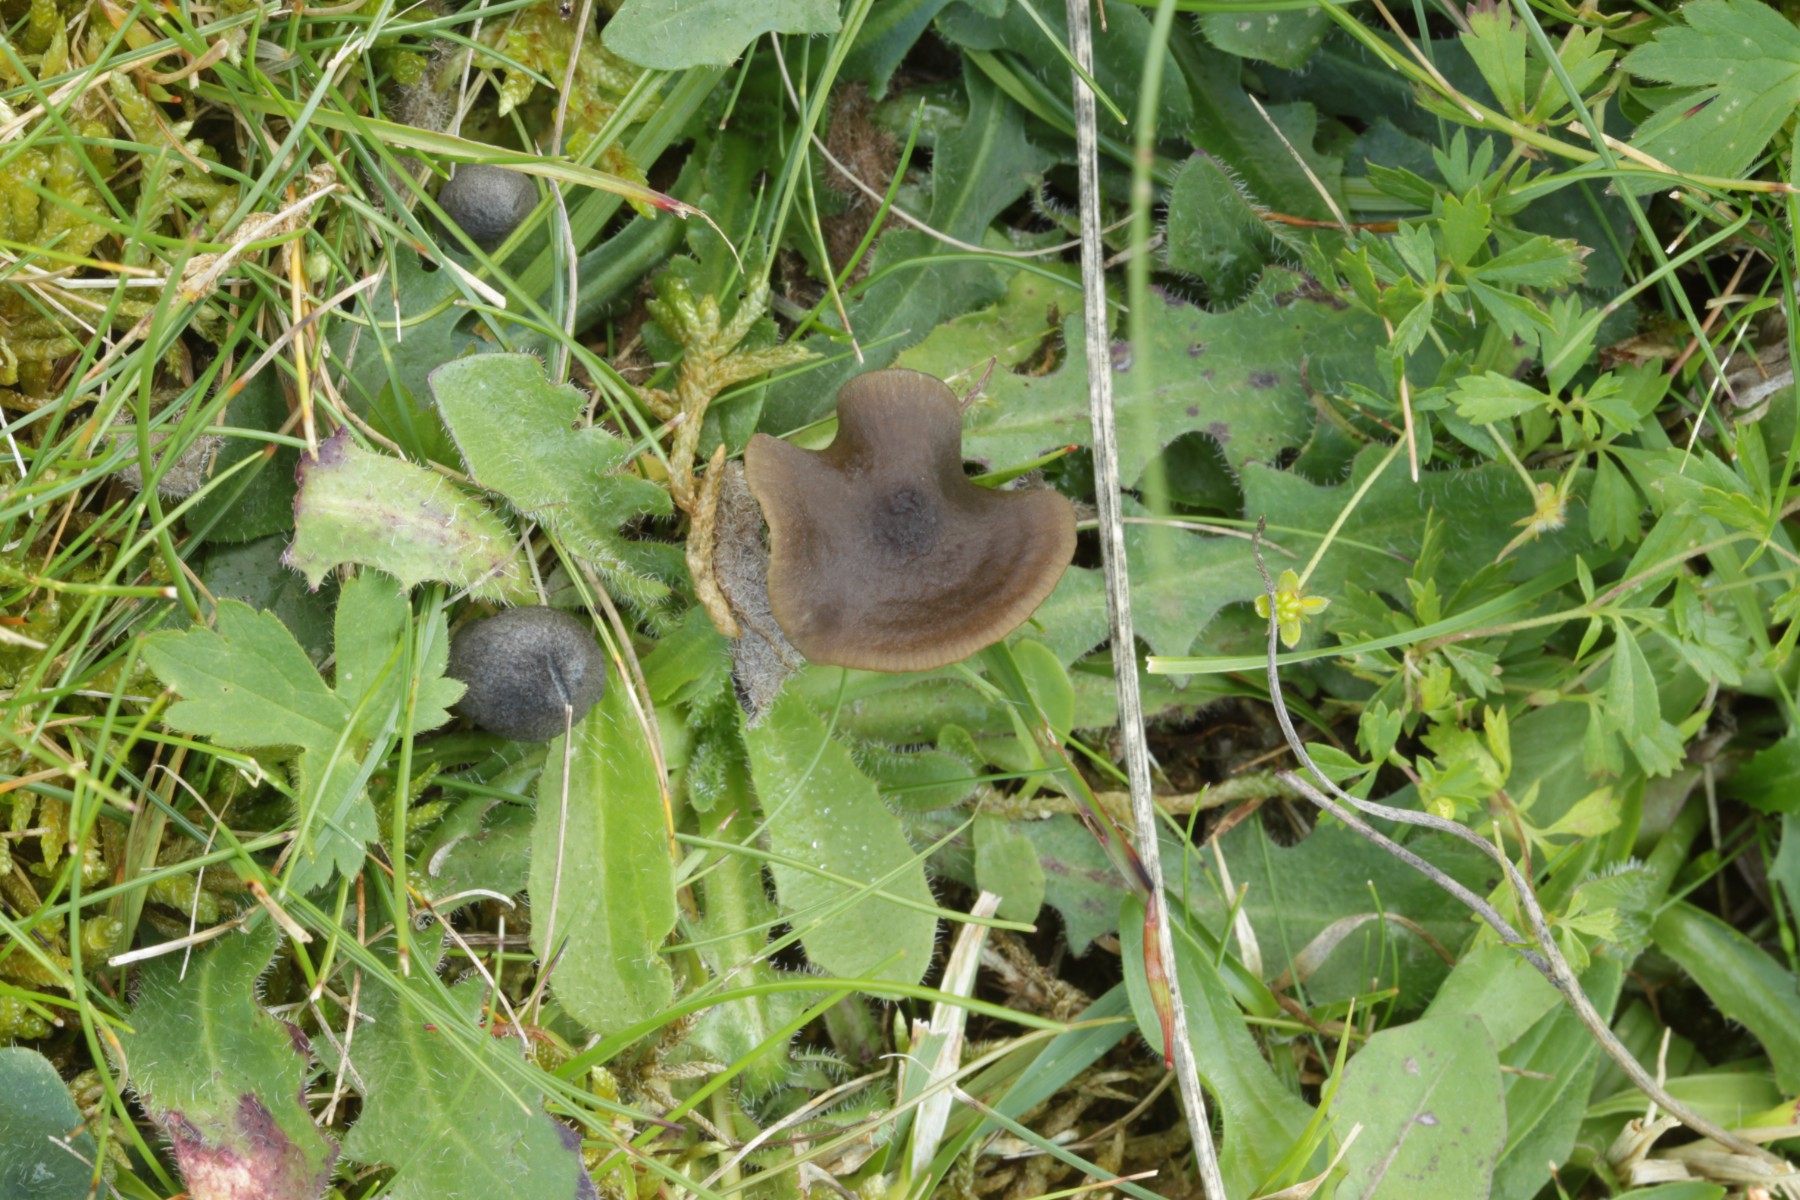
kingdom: Fungi
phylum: Basidiomycota
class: Agaricomycetes
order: Agaricales
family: Entolomataceae
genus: Entoloma
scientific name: Entoloma clandestinum
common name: tykbladet rødblad
